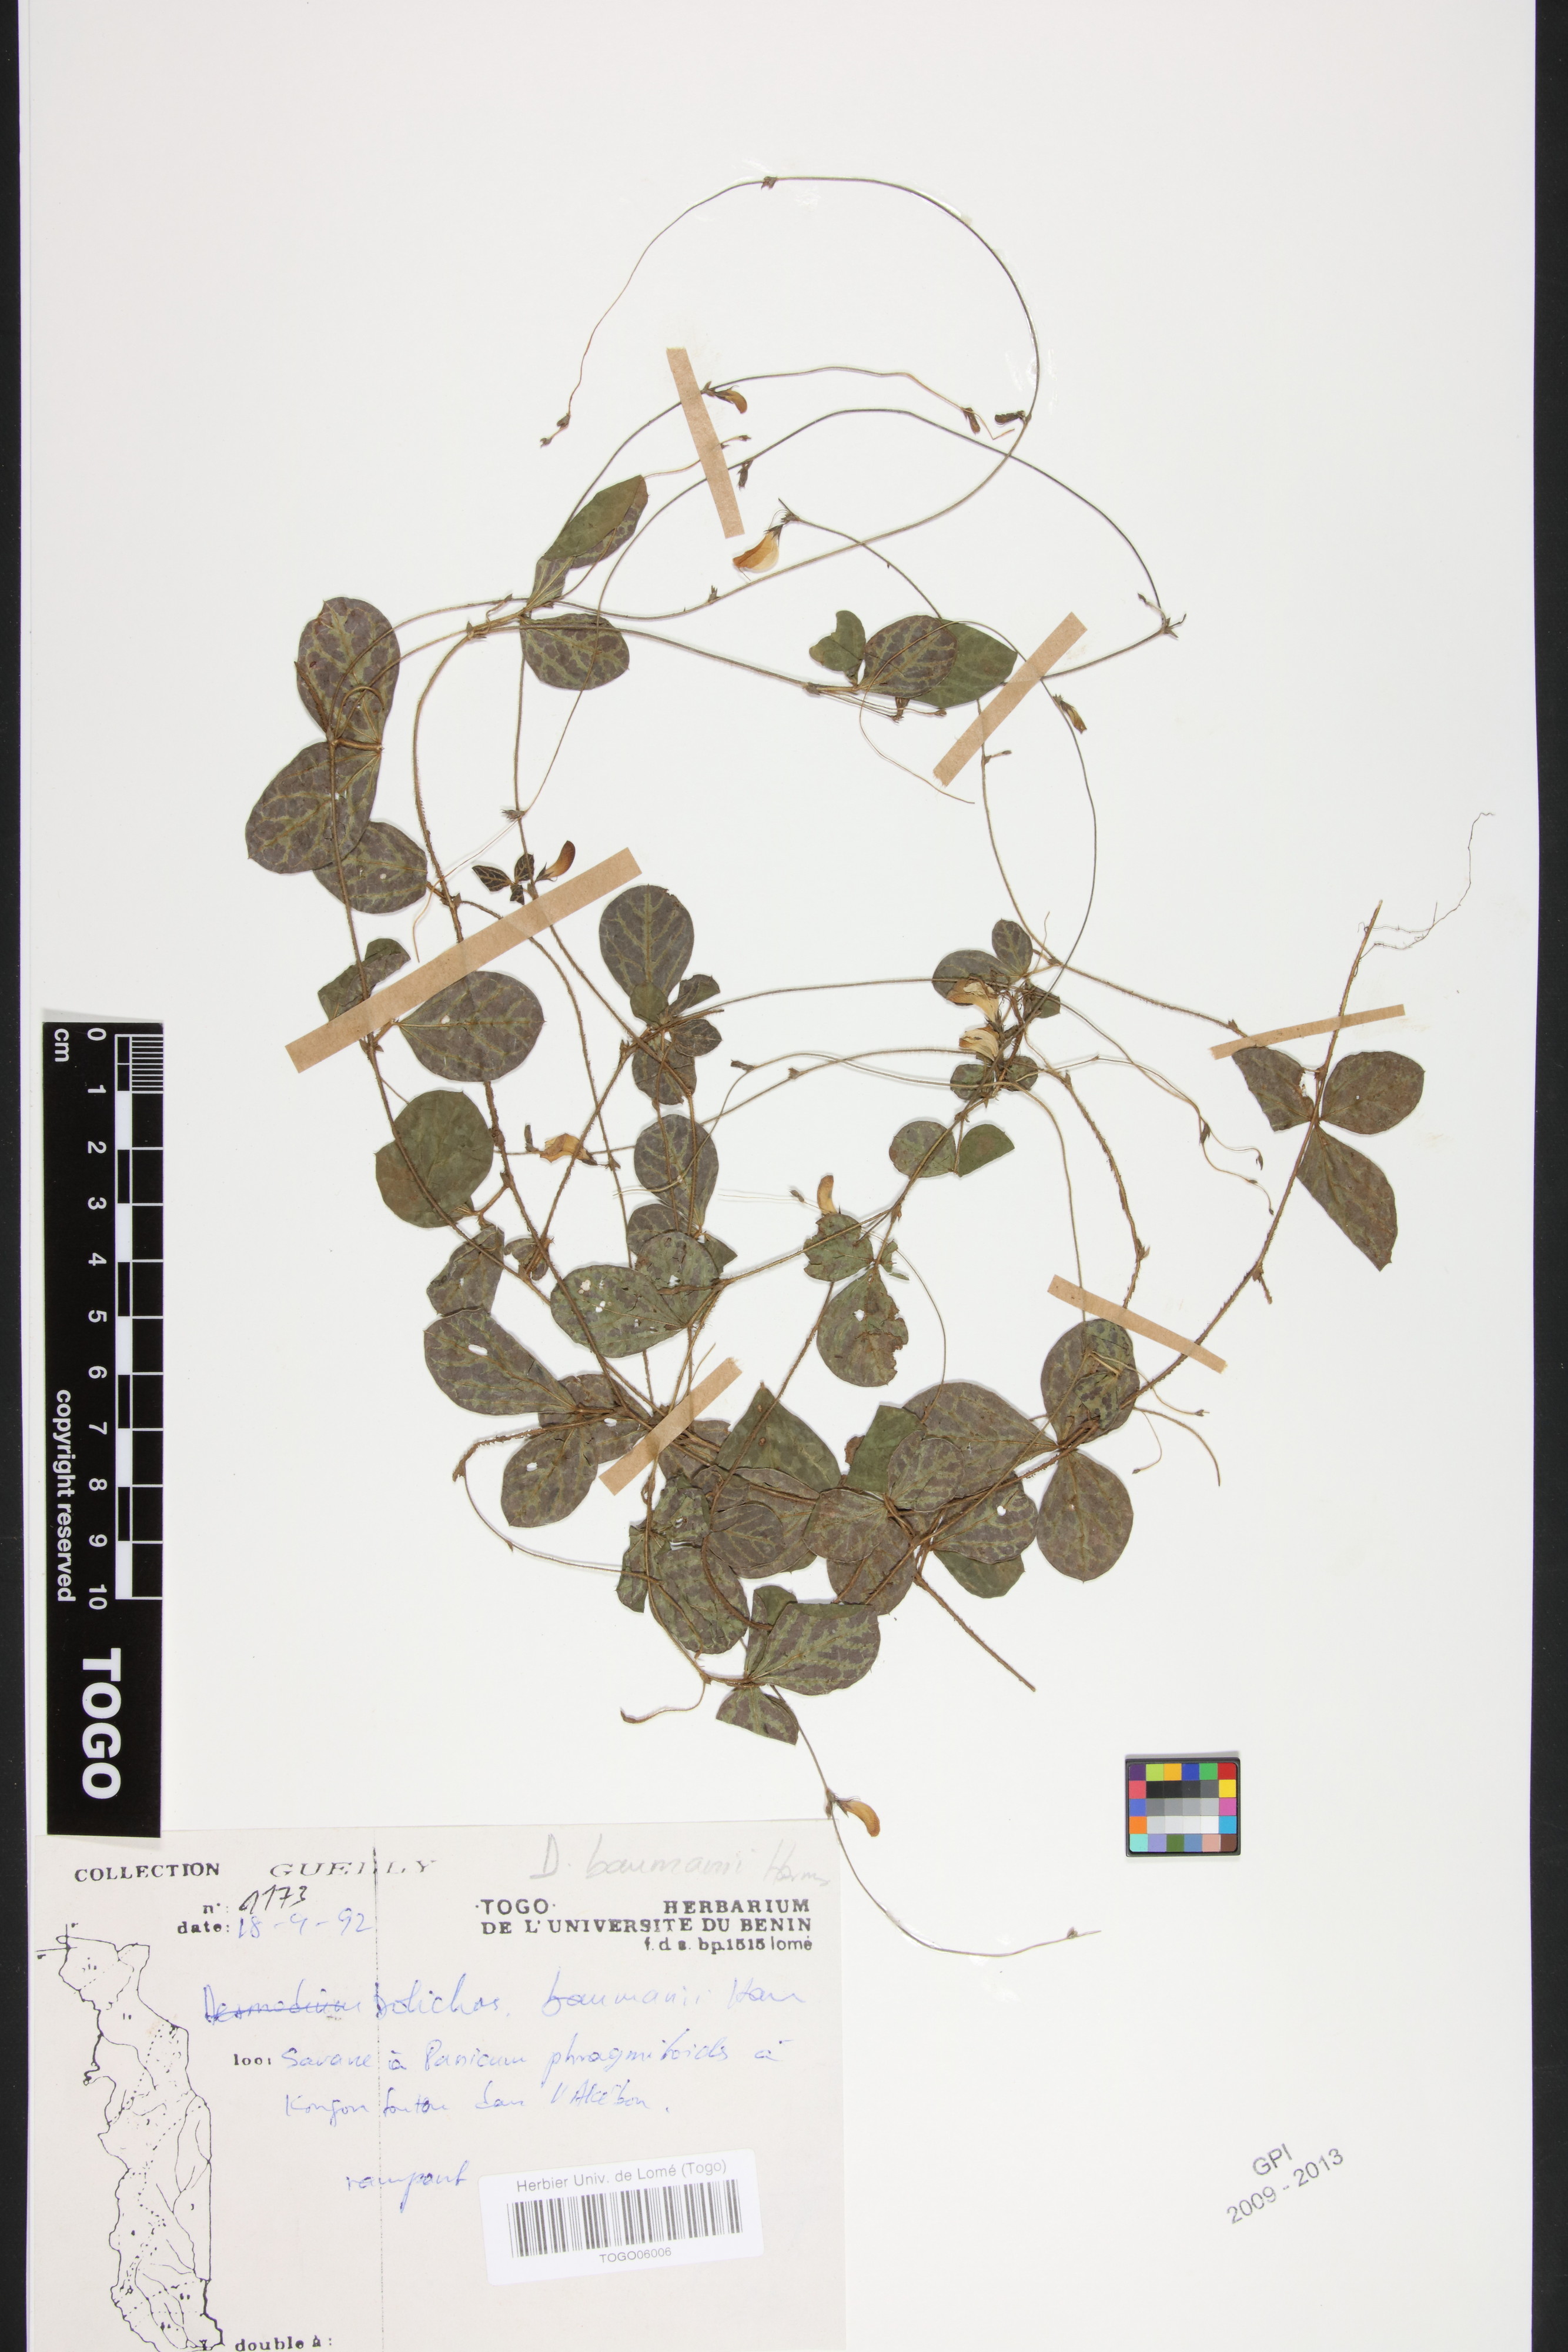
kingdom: Plantae
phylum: Tracheophyta
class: Magnoliopsida
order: Fabales
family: Fabaceae
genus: Macrotyloma
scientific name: Macrotyloma tenuiflorum
